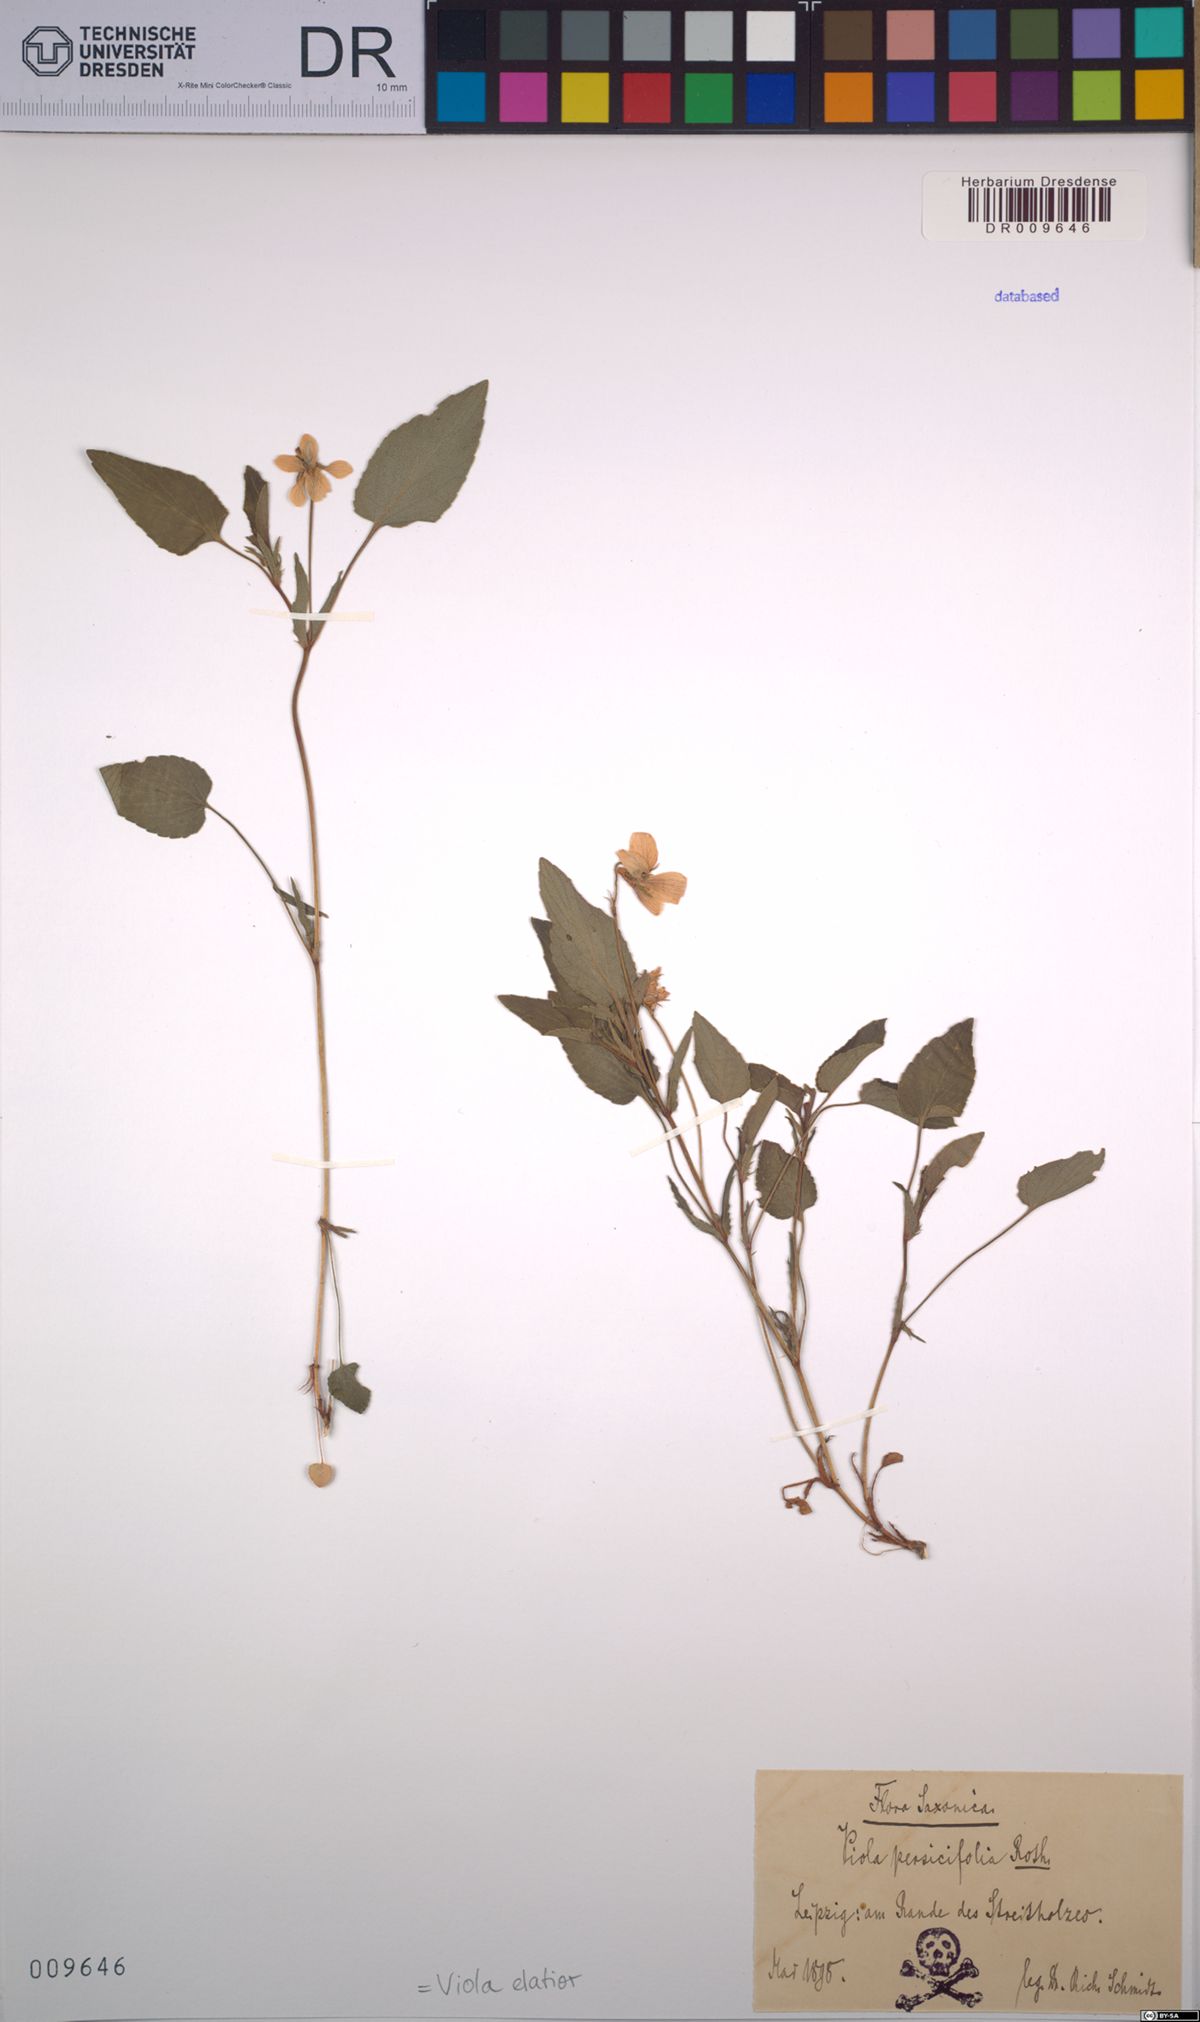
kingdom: Plantae
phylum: Tracheophyta
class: Magnoliopsida
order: Malpighiales
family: Violaceae
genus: Viola
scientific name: Viola elatior
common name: Tall violet
